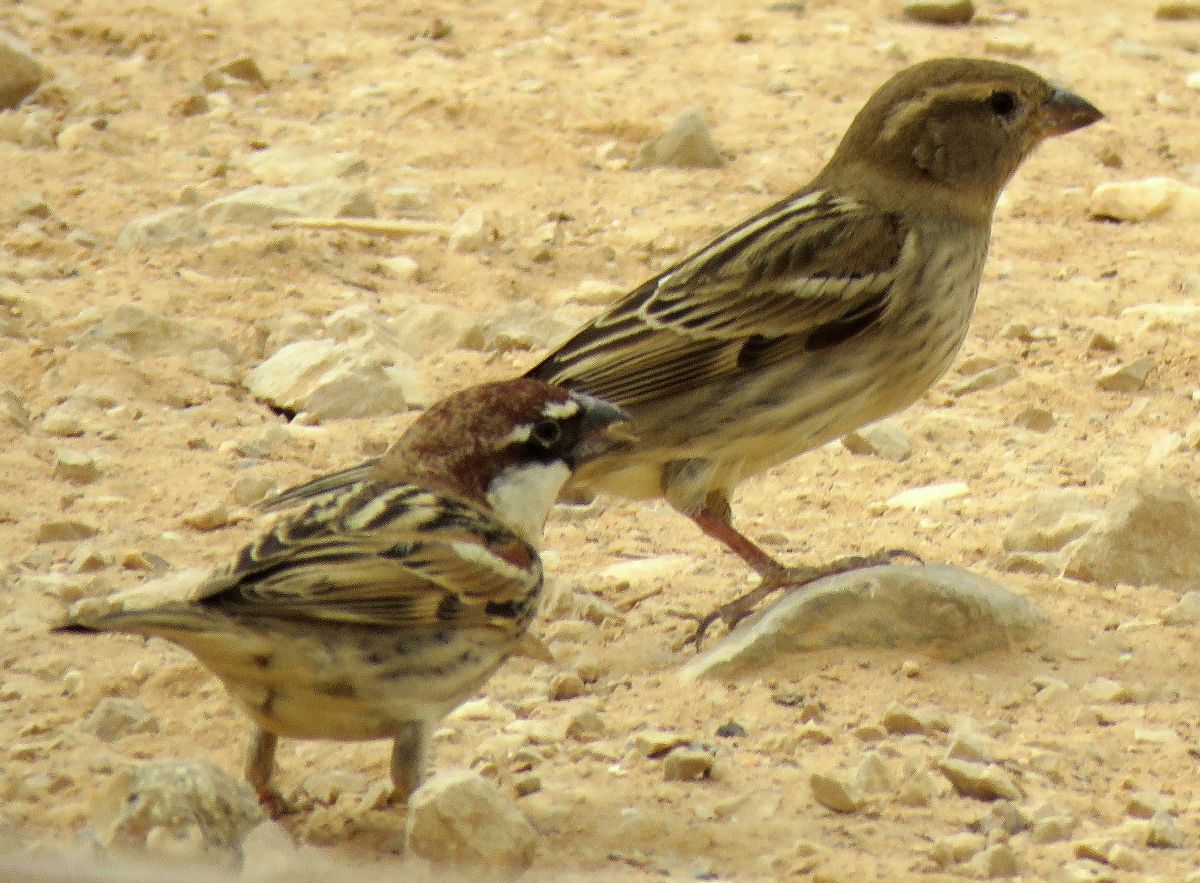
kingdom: Animalia
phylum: Chordata
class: Aves
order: Passeriformes
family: Passeridae
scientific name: Passeridae
